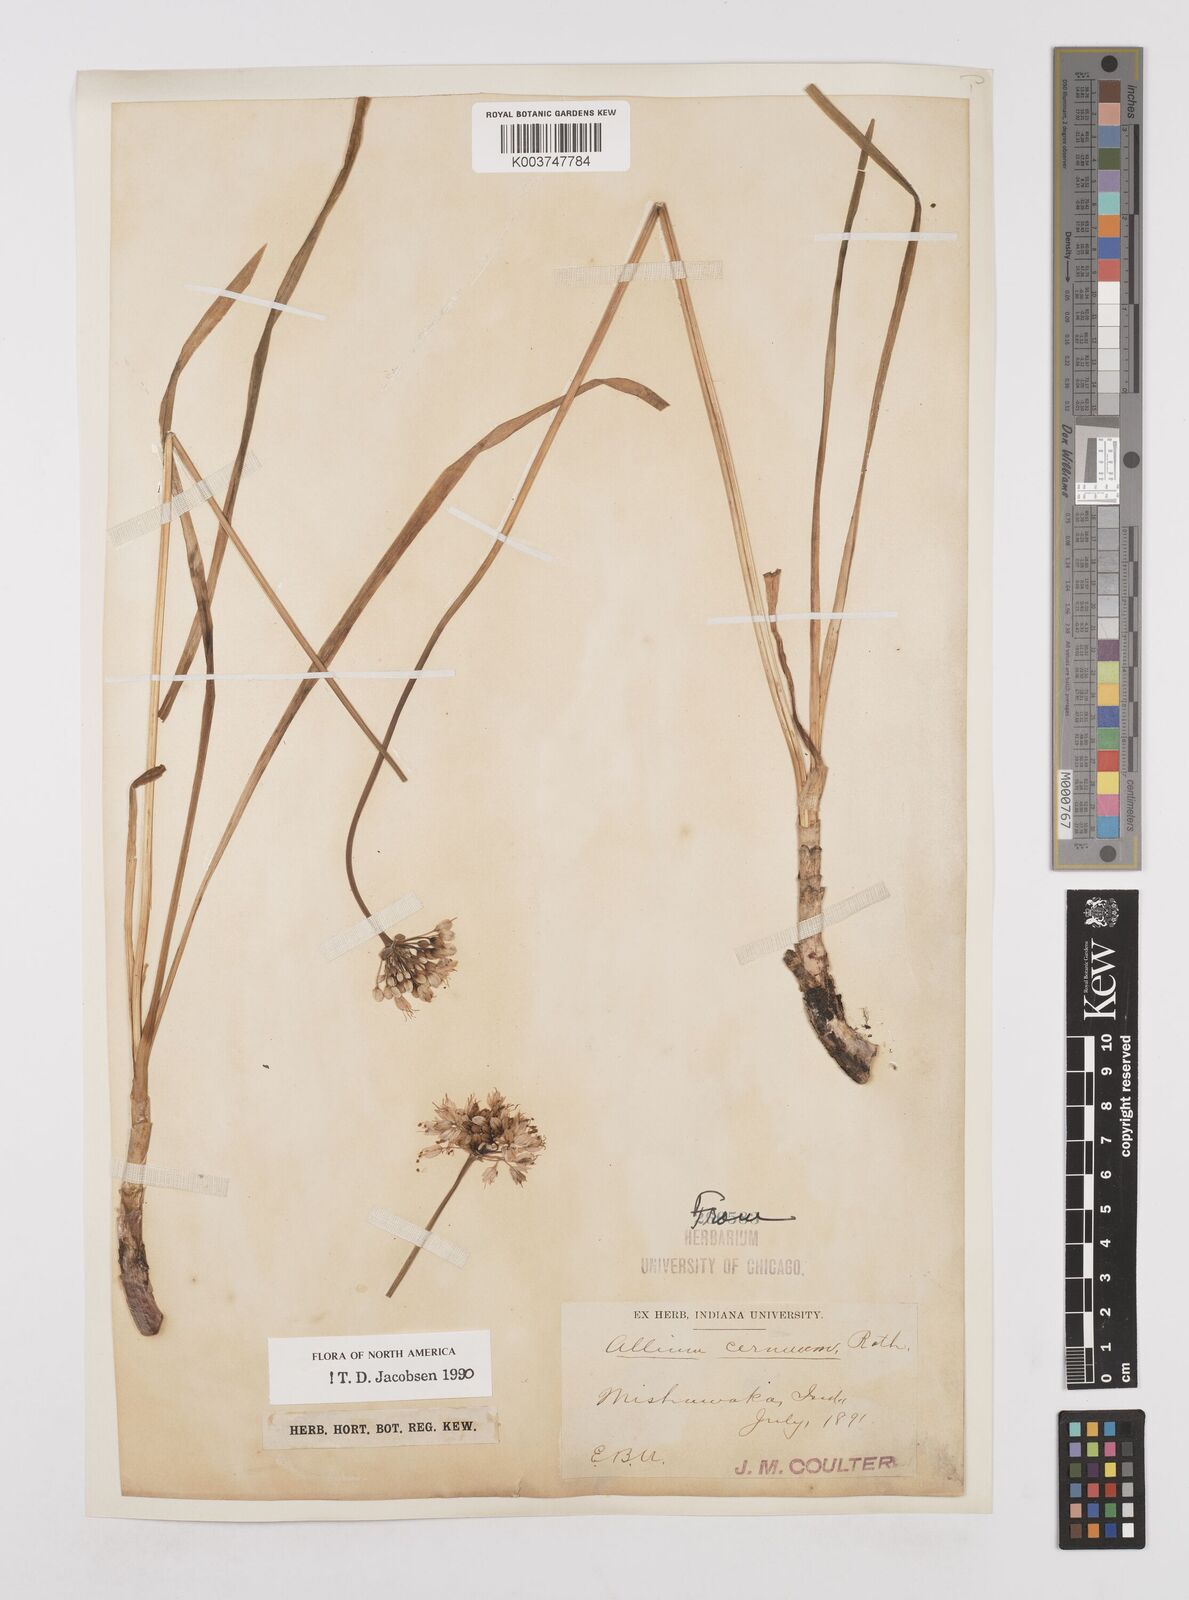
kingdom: Plantae
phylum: Tracheophyta
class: Liliopsida
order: Asparagales
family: Amaryllidaceae
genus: Allium
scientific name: Allium cernuum
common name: Nodding onion
